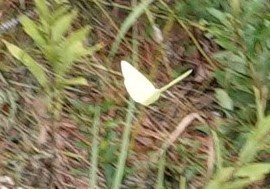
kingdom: Animalia
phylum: Arthropoda
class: Insecta
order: Lepidoptera
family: Pieridae
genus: Phoebis
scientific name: Phoebis sennae
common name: Cloudless Sulphur
